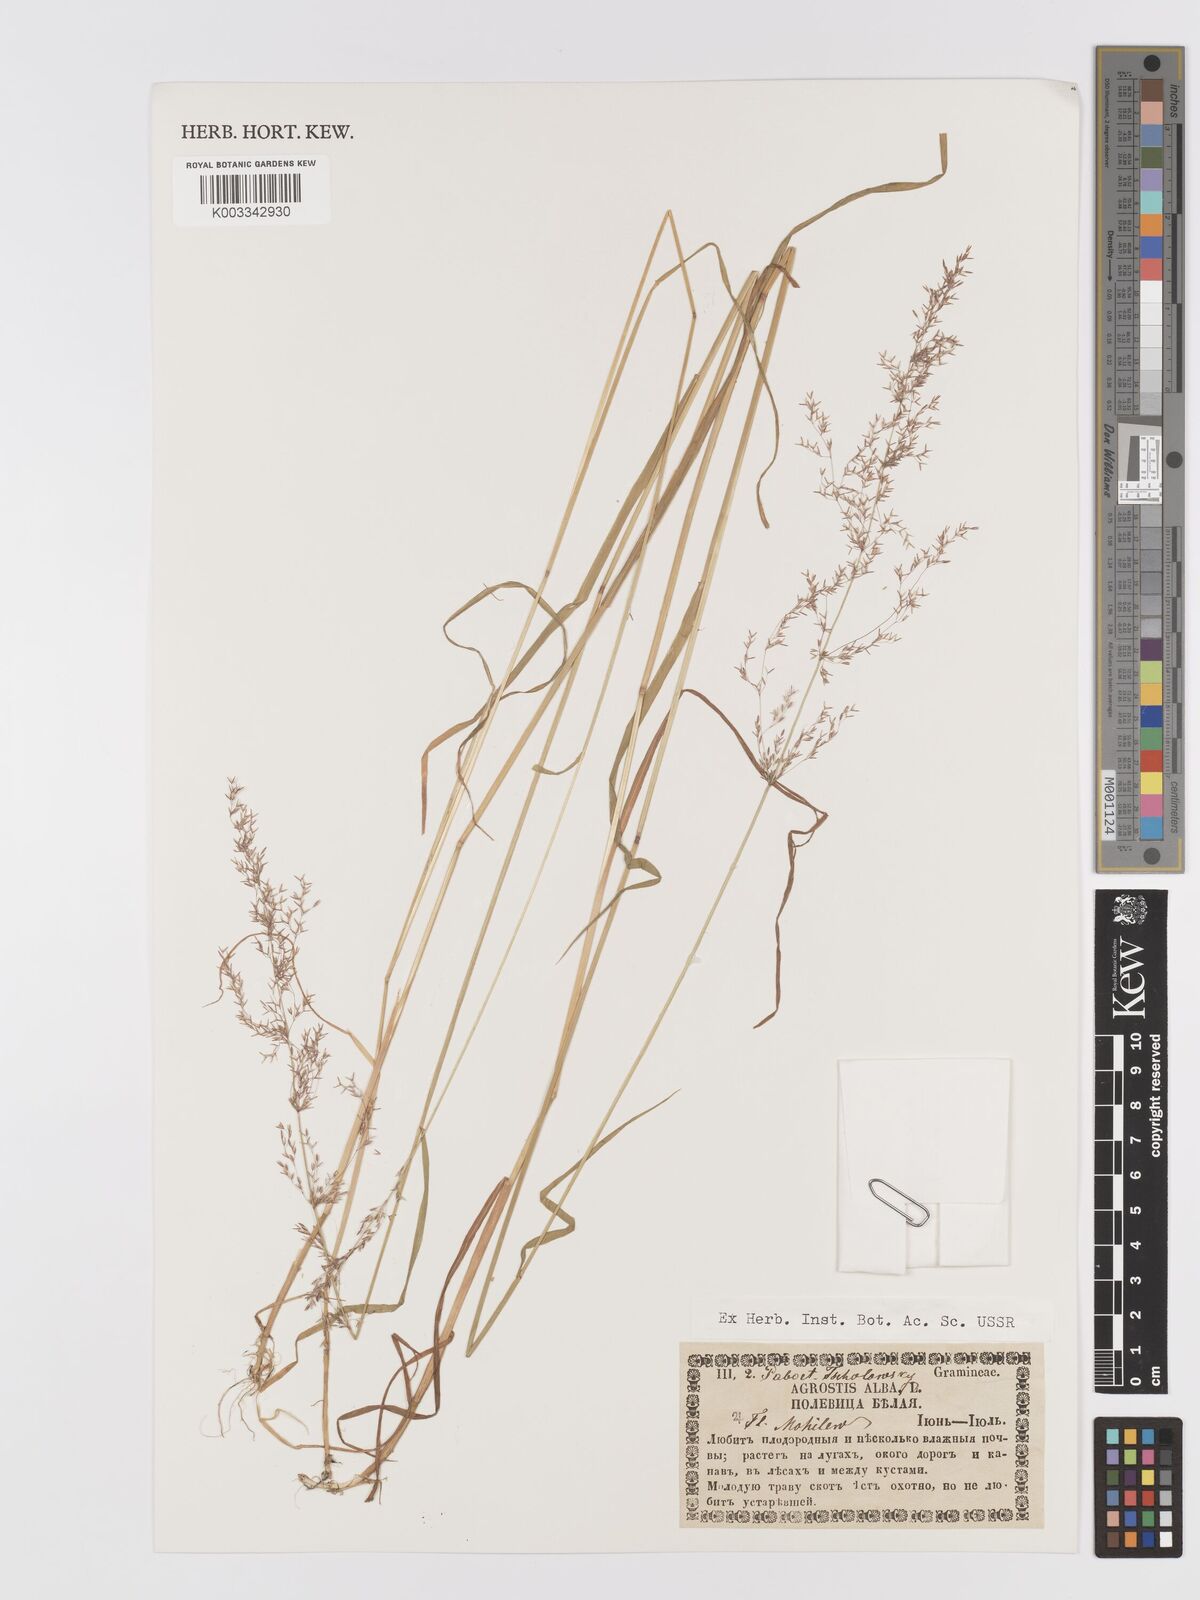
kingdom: Plantae
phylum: Tracheophyta
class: Liliopsida
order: Poales
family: Poaceae
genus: Agrostis
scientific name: Agrostis gigantea
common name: Black bent
